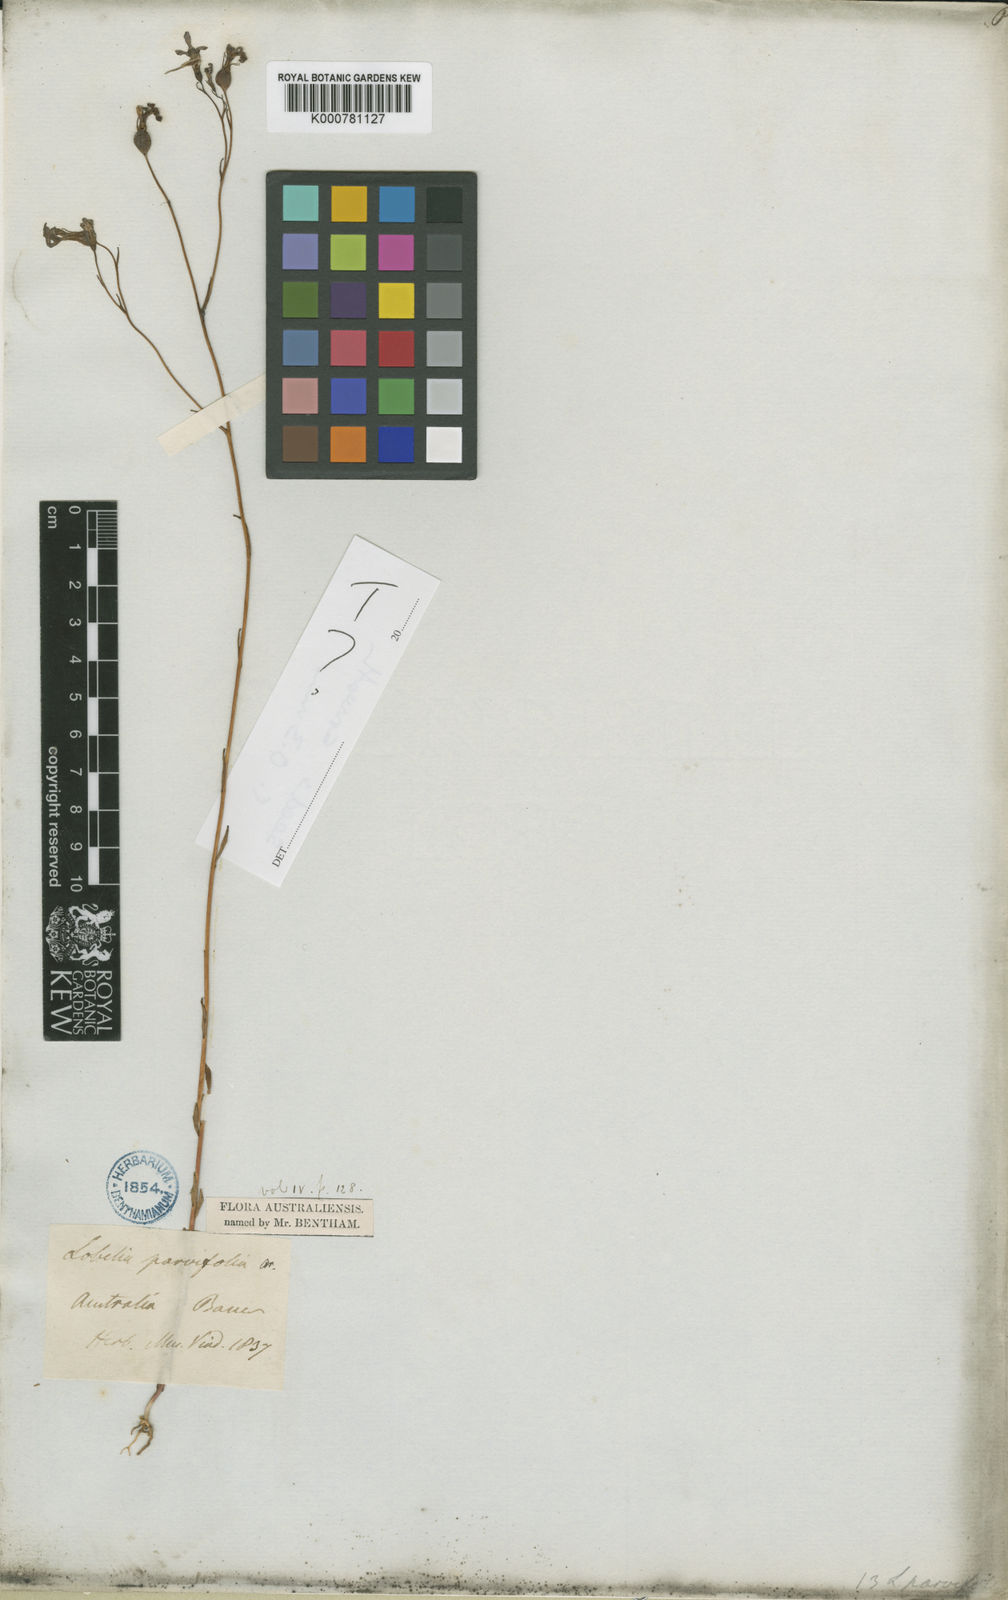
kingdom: Plantae
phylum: Tracheophyta
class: Magnoliopsida
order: Asterales
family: Campanulaceae
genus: Lobelia
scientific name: Lobelia rarifolia
